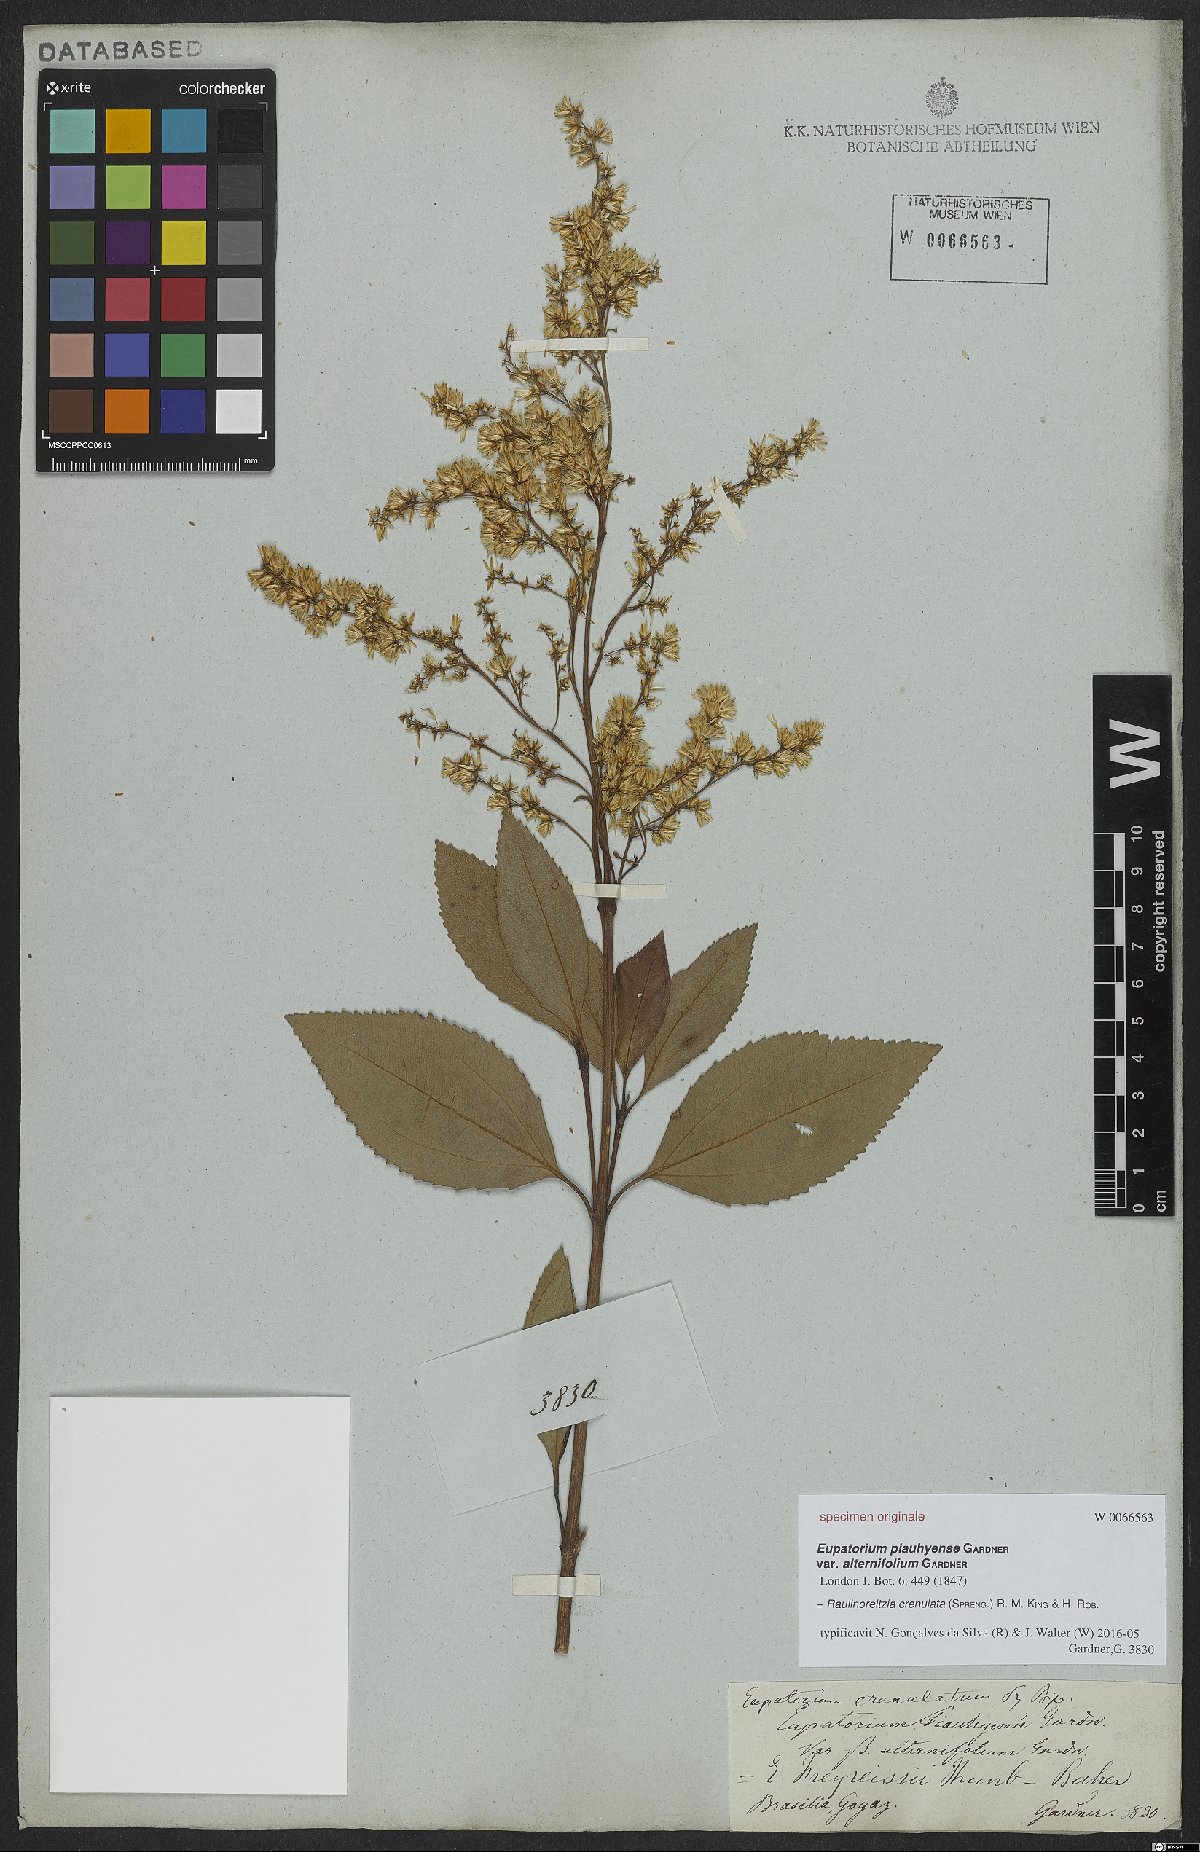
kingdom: Plantae
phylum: Tracheophyta
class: Magnoliopsida
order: Asterales
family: Asteraceae
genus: Raulinoreitzia
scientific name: Raulinoreitzia crenulata
